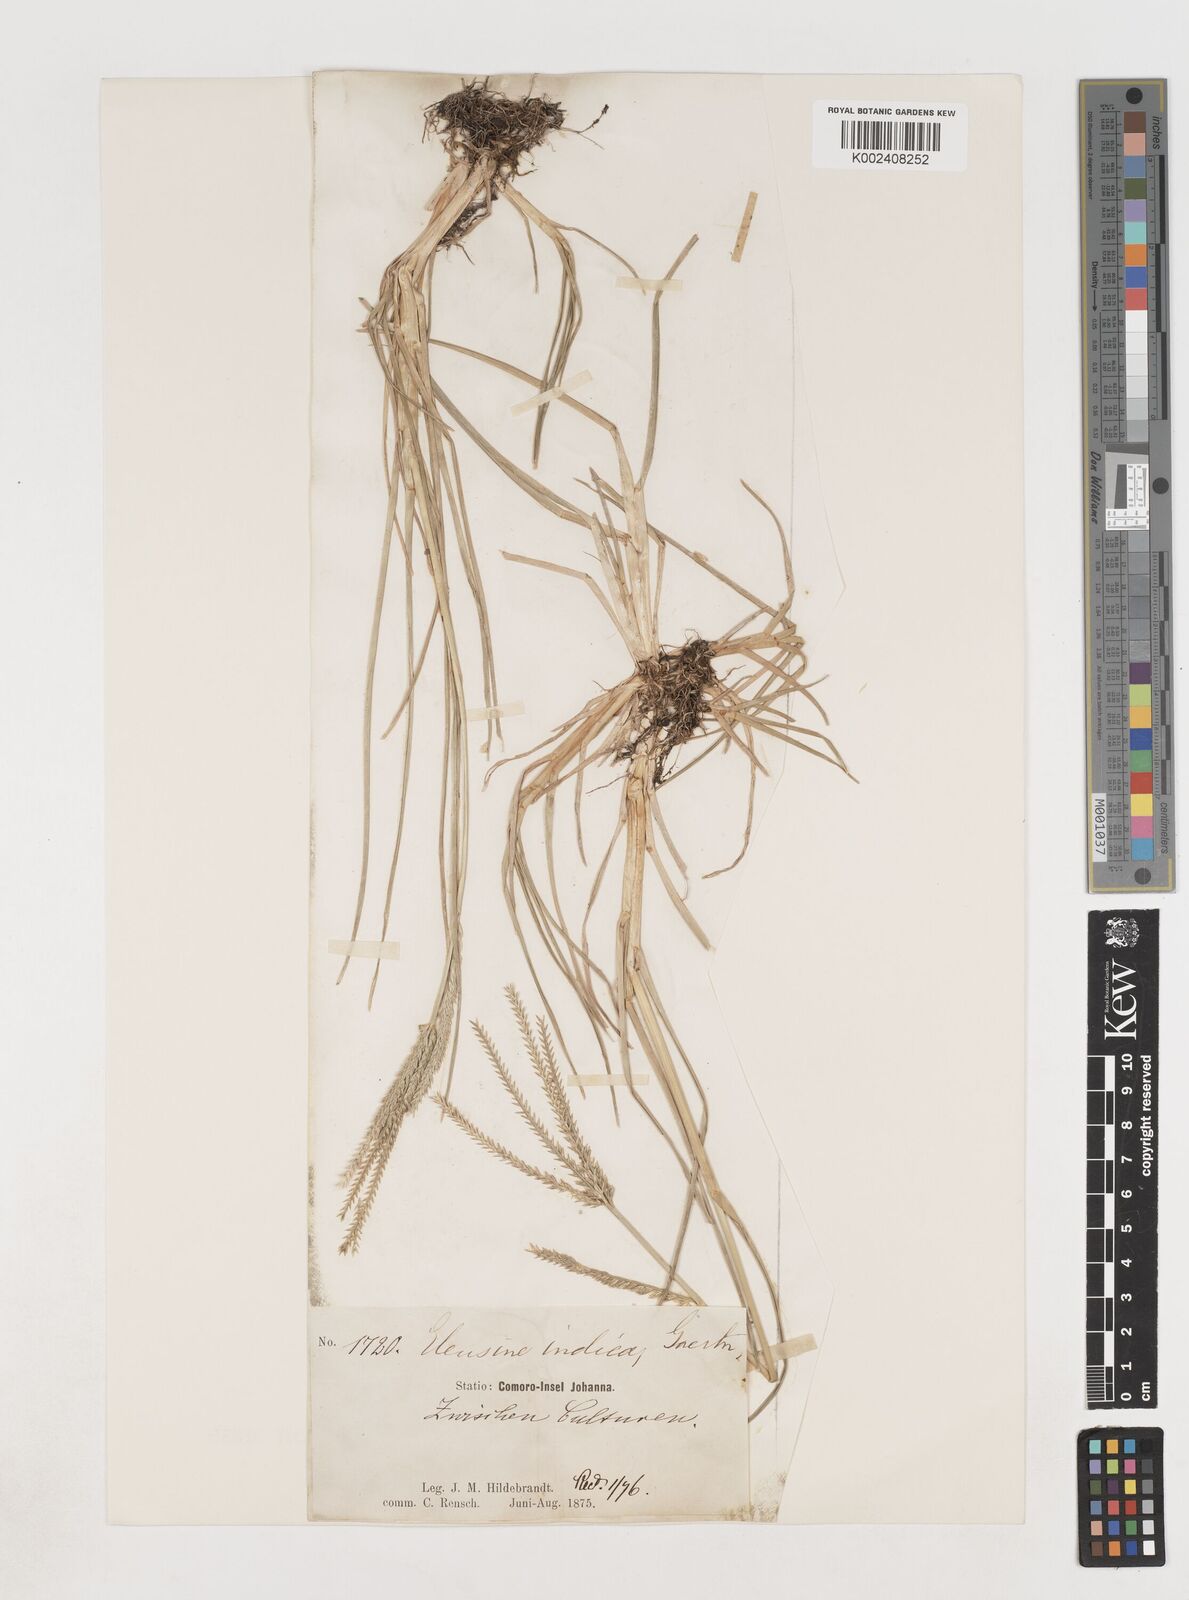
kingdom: Plantae
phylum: Tracheophyta
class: Liliopsida
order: Poales
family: Poaceae
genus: Eleusine
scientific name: Eleusine indica
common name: Yard-grass
